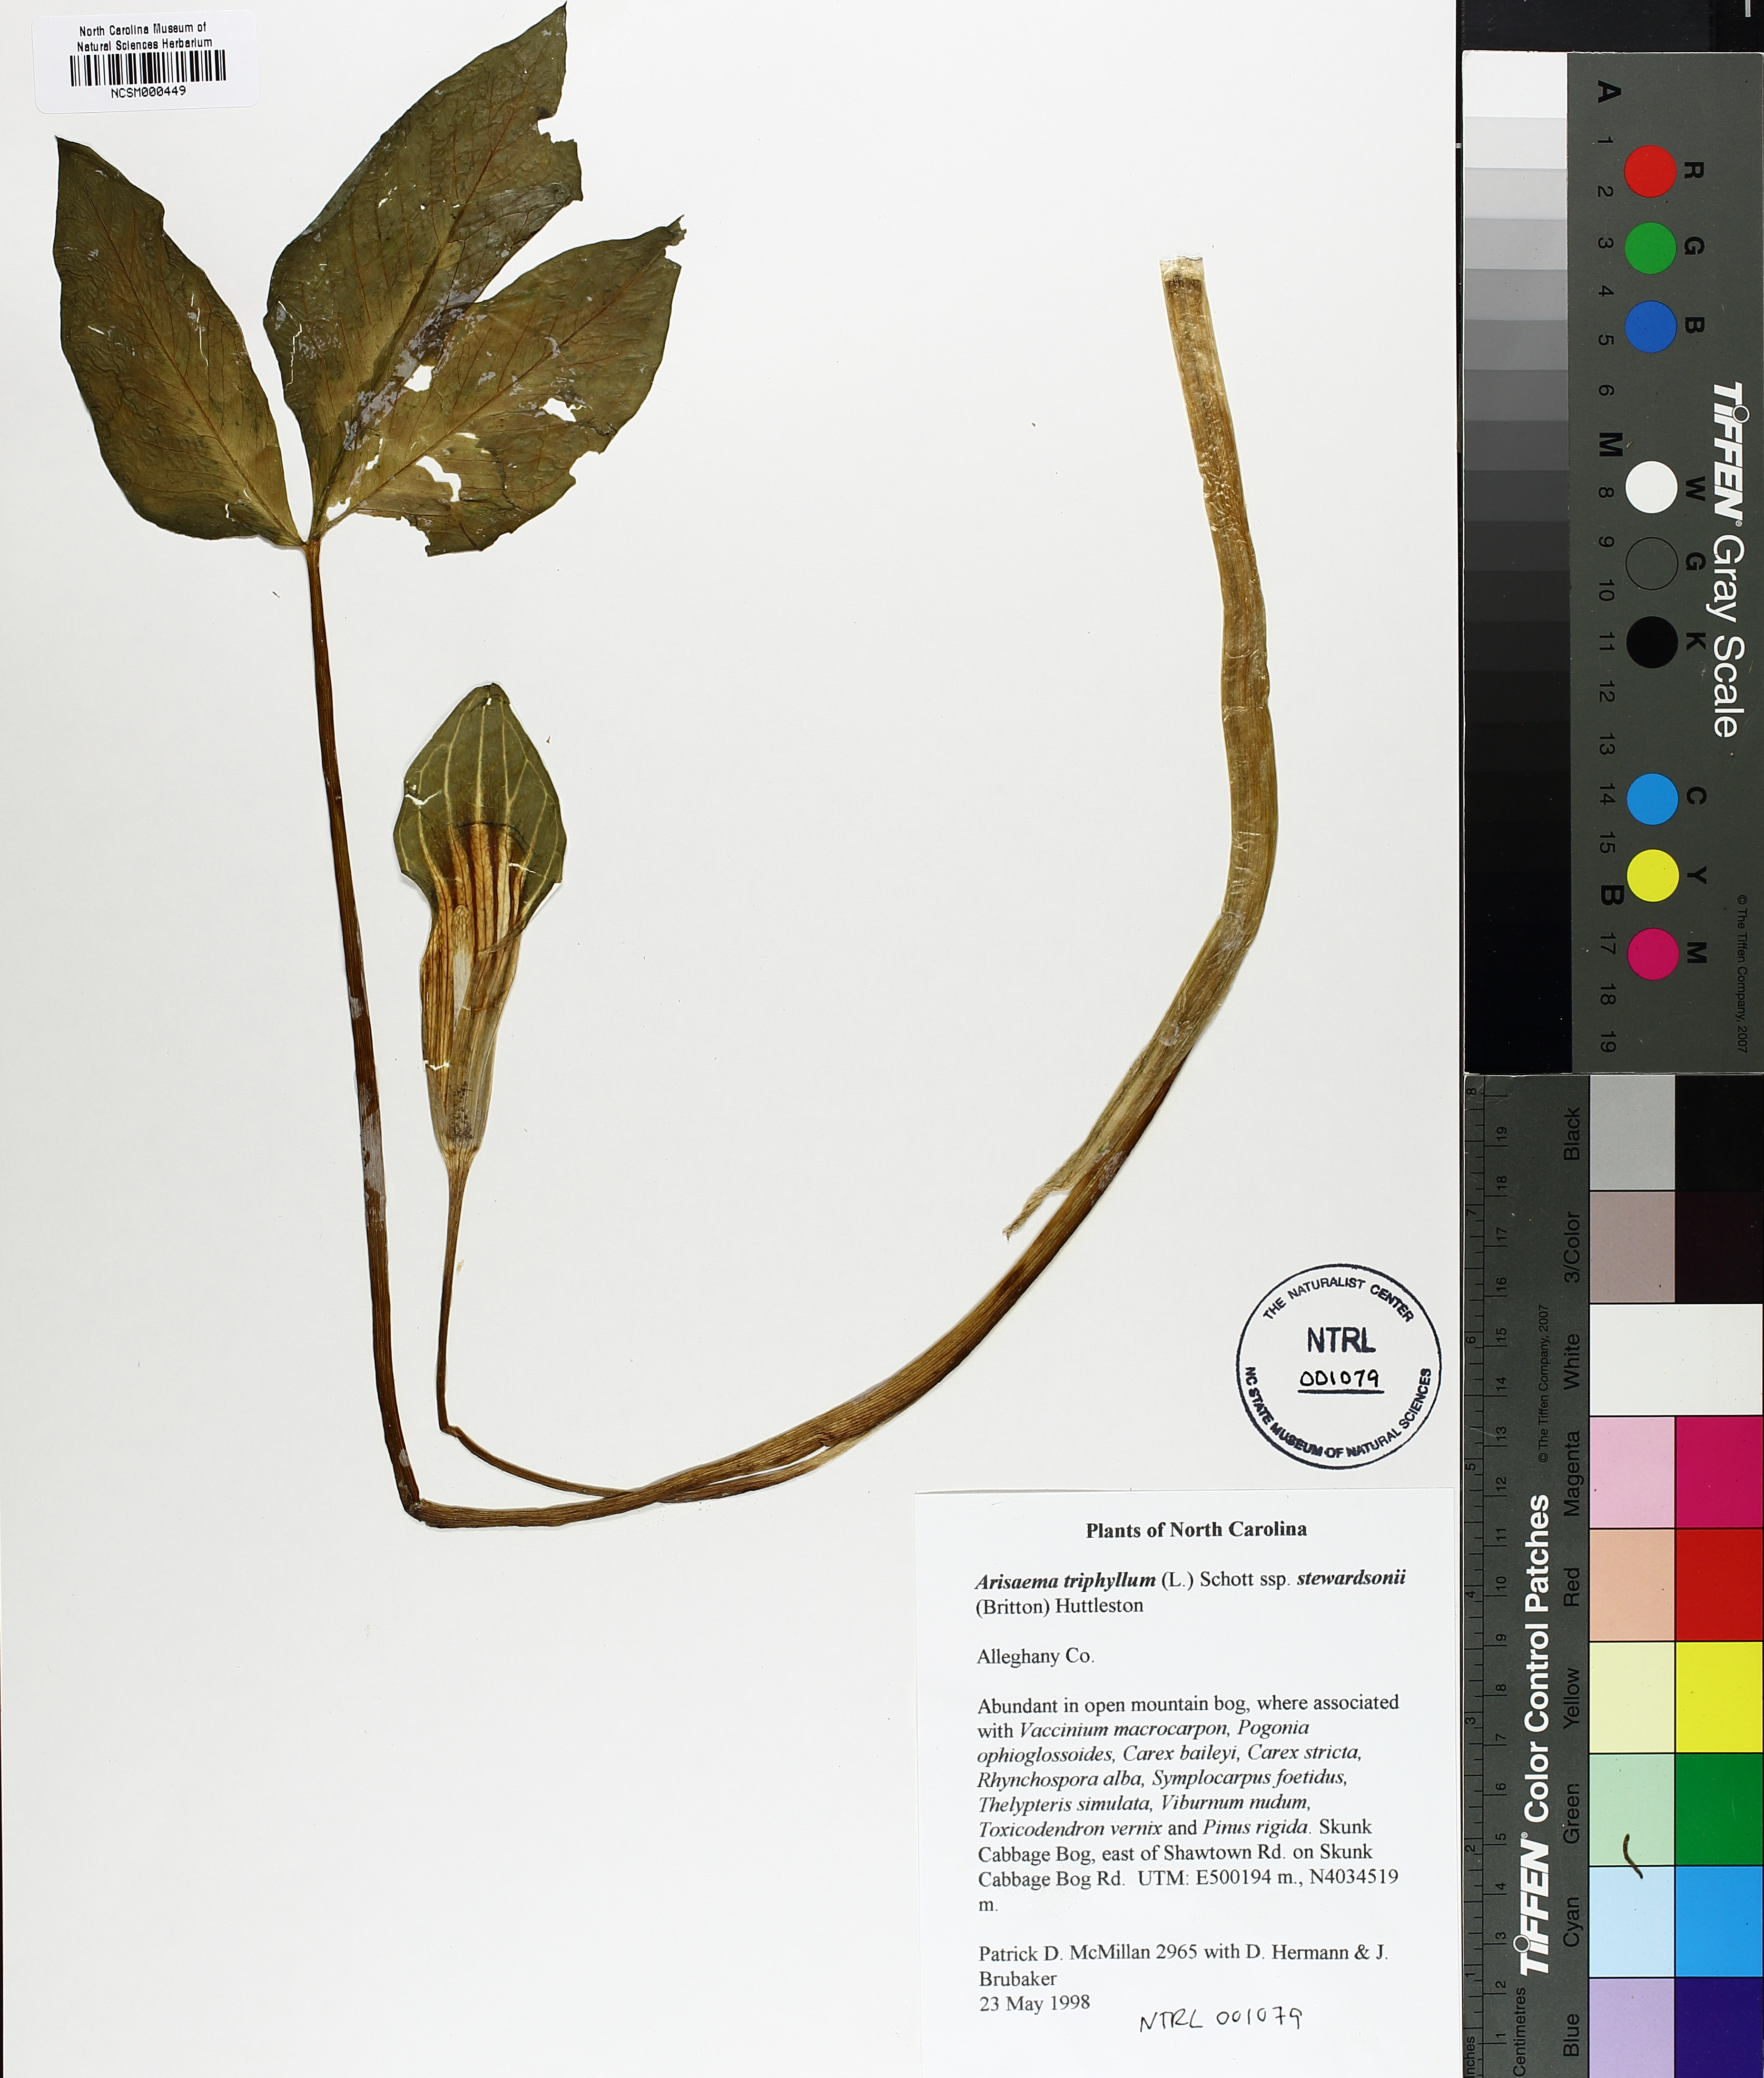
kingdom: Plantae
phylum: Tracheophyta
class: Liliopsida
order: Alismatales
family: Araceae
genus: Arisaema
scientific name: Arisaema stewardsonii
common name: Swamp jack-in-the-pulpit
